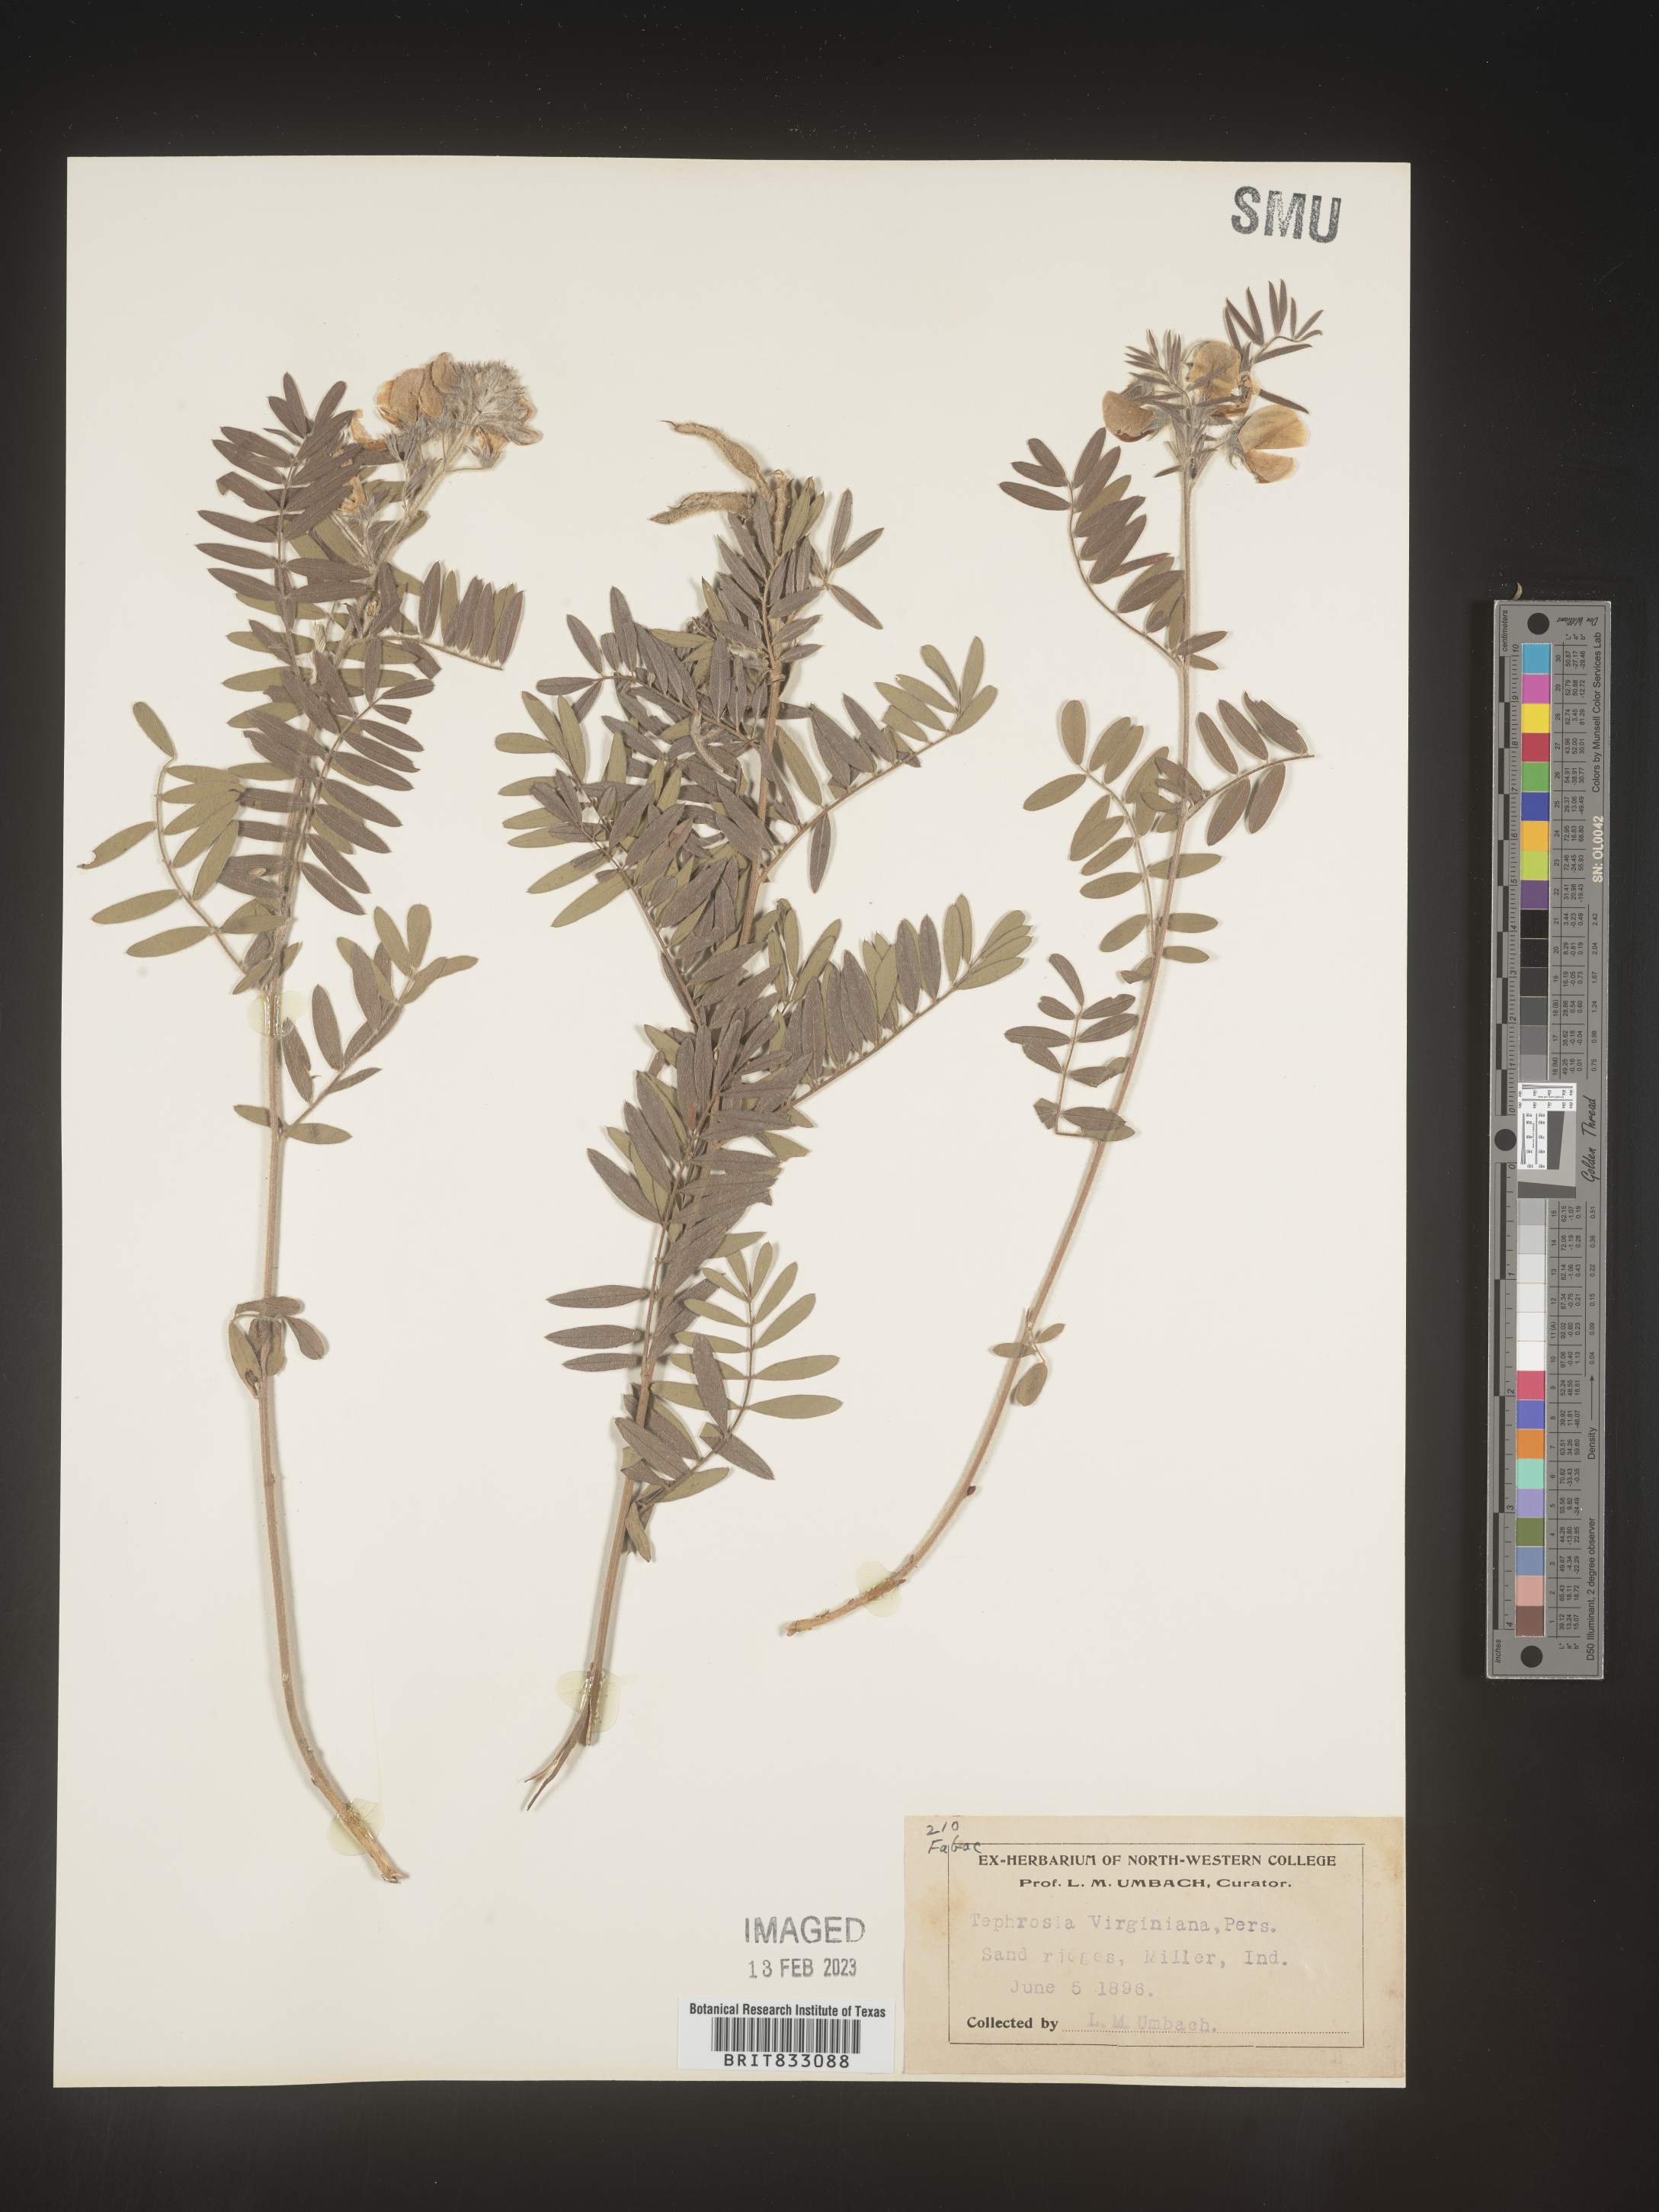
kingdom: Plantae
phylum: Tracheophyta
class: Magnoliopsida
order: Fabales
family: Fabaceae
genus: Tephrosia
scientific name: Tephrosia virginiana
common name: Rabbit-pea
